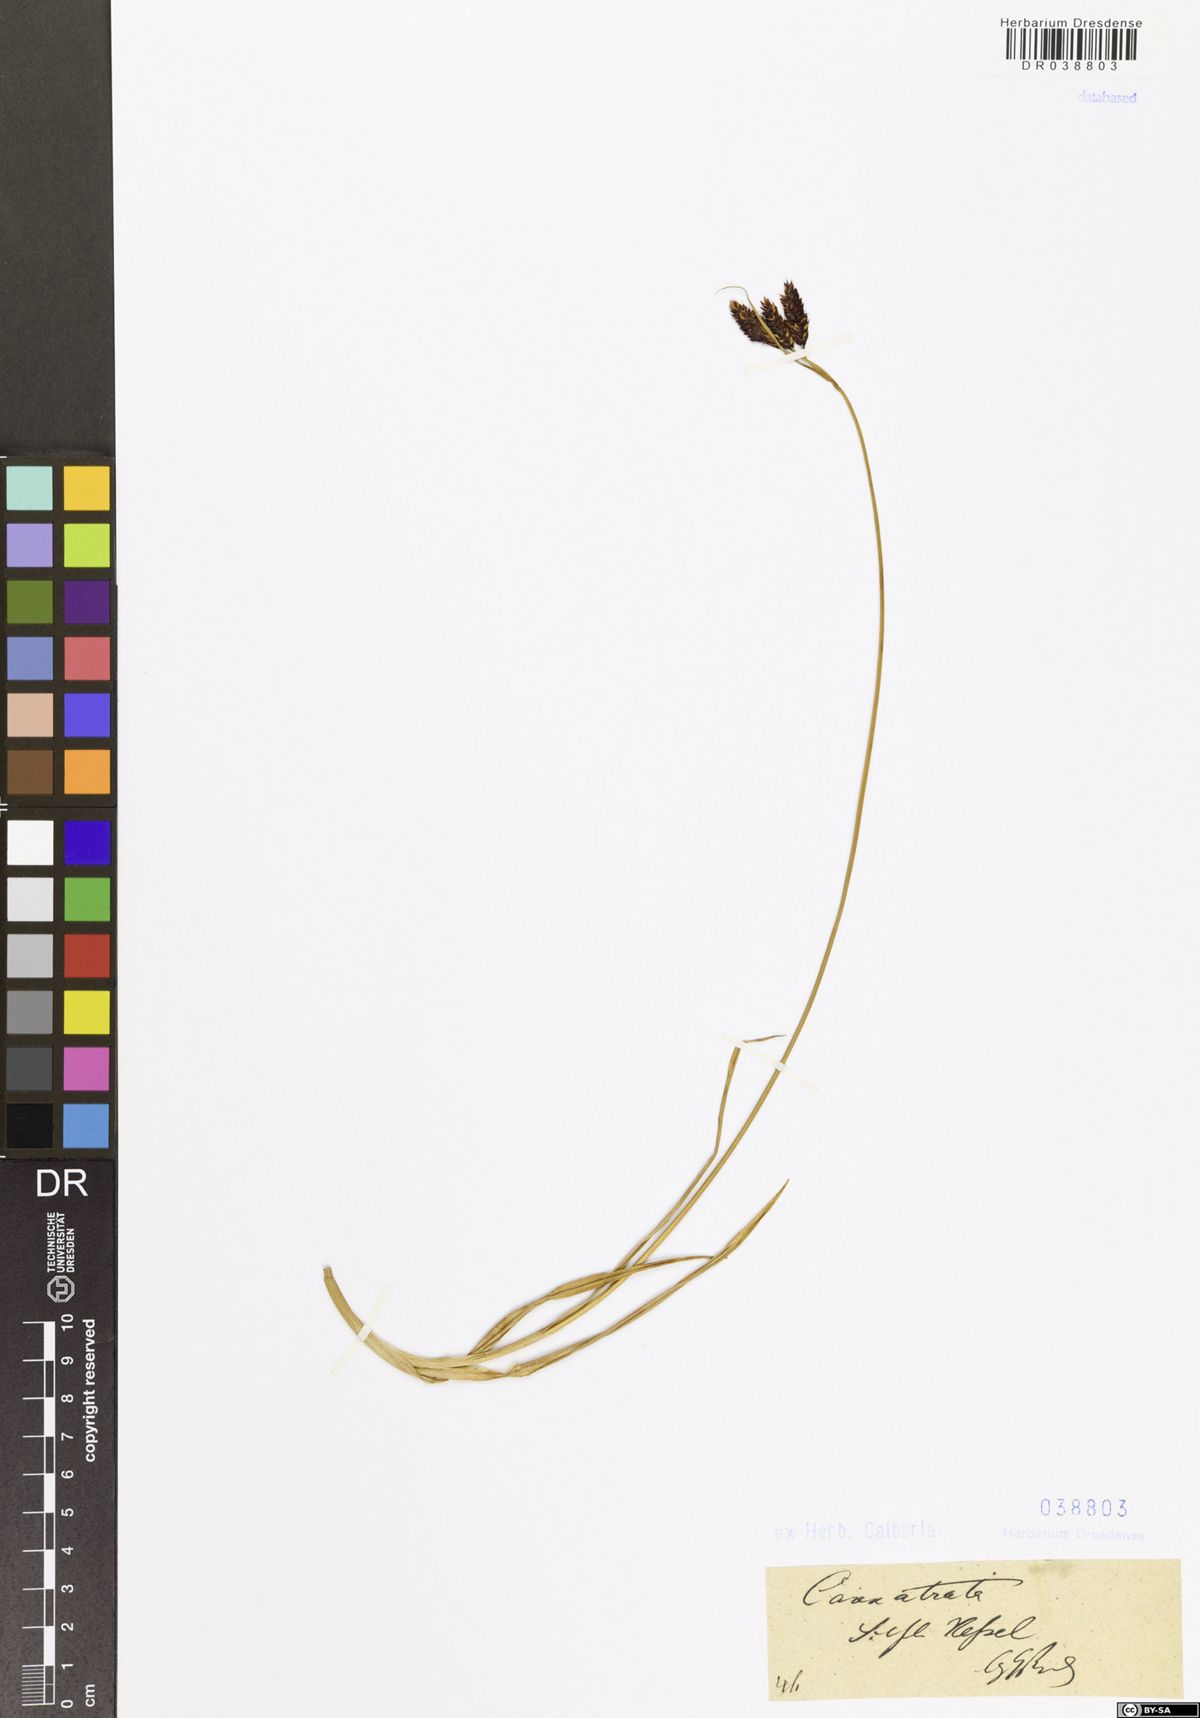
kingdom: Plantae
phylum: Tracheophyta
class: Liliopsida
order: Poales
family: Cyperaceae
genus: Carex
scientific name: Carex atrata
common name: Black alpine sedge
